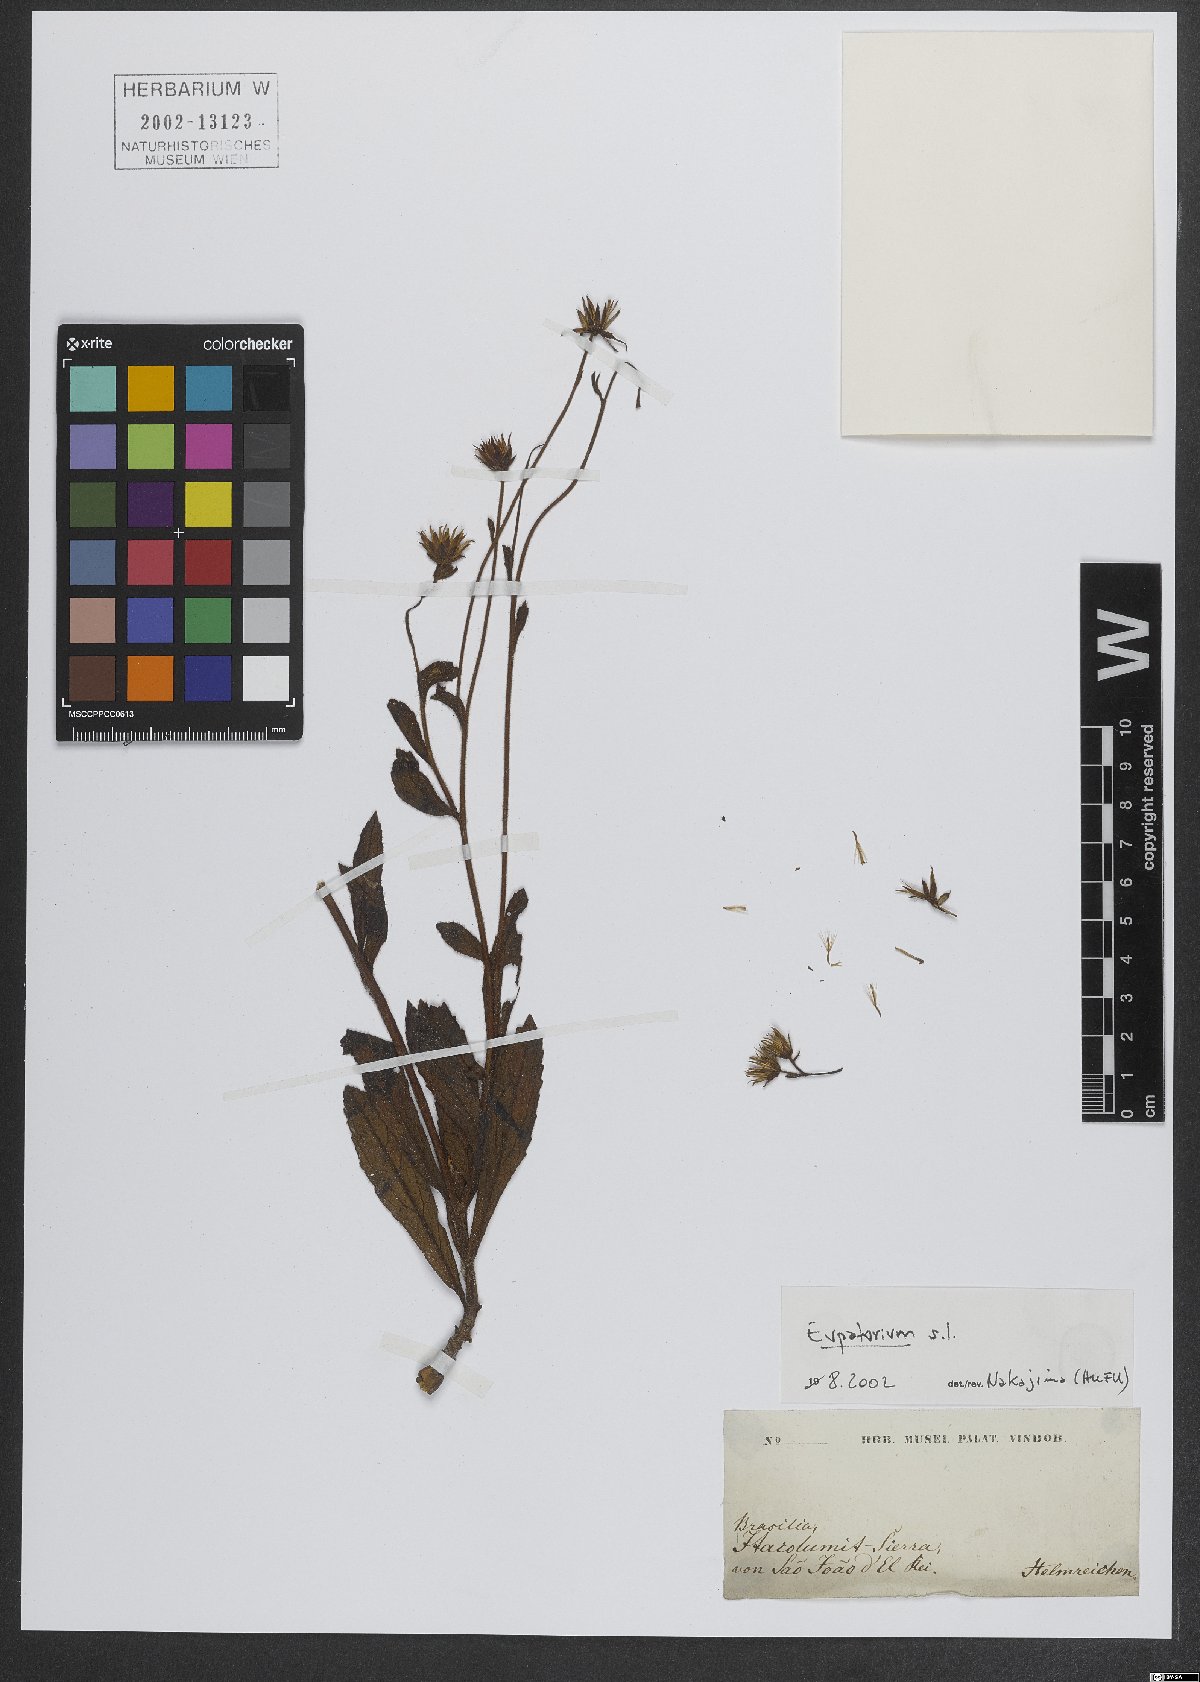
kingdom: Plantae
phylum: Tracheophyta
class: Magnoliopsida
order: Asterales
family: Asteraceae
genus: Eupatorium
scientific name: Eupatorium
